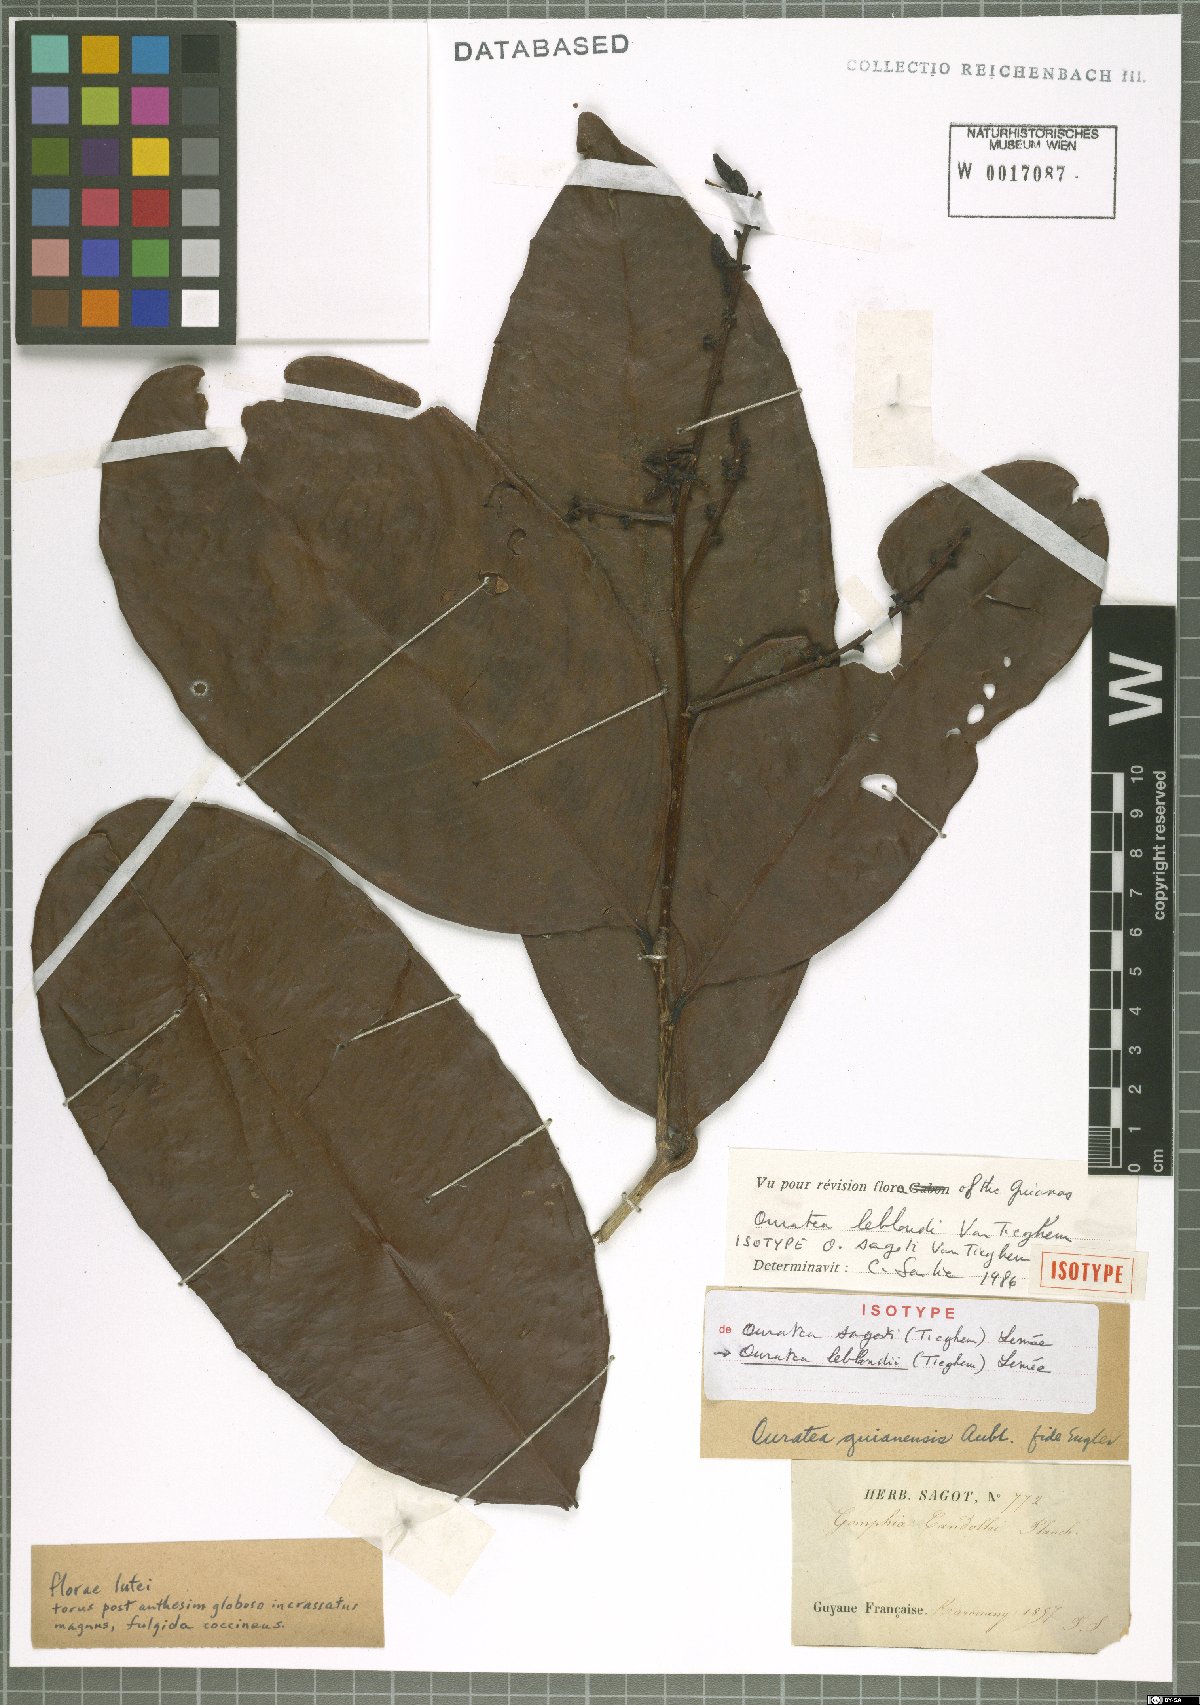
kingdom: Plantae
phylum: Tracheophyta
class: Magnoliopsida
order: Malpighiales
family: Ochnaceae
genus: Ouratea
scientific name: Ouratea leblondii
